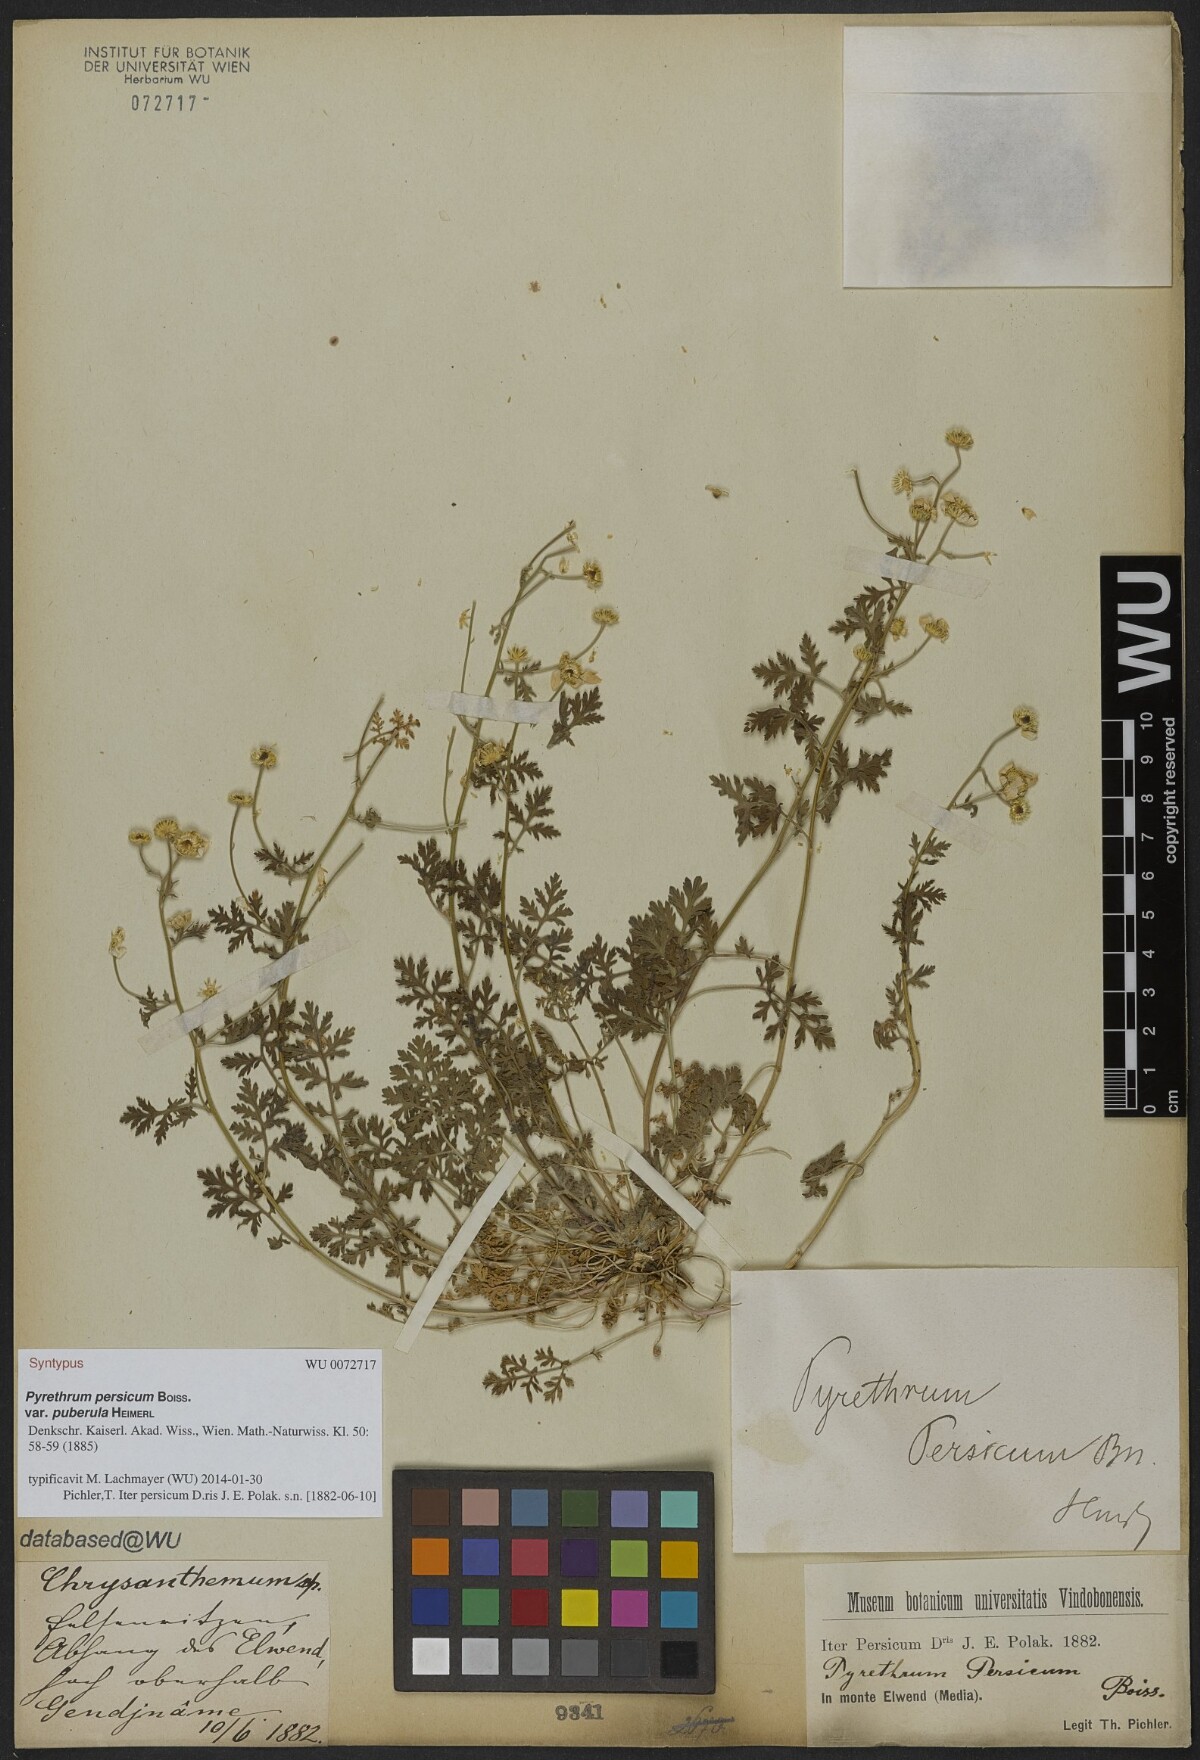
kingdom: Plantae
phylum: Tracheophyta
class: Magnoliopsida
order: Asterales
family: Asteraceae
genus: Tanacetum
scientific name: Tanacetum parthenium
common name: Feverfew
